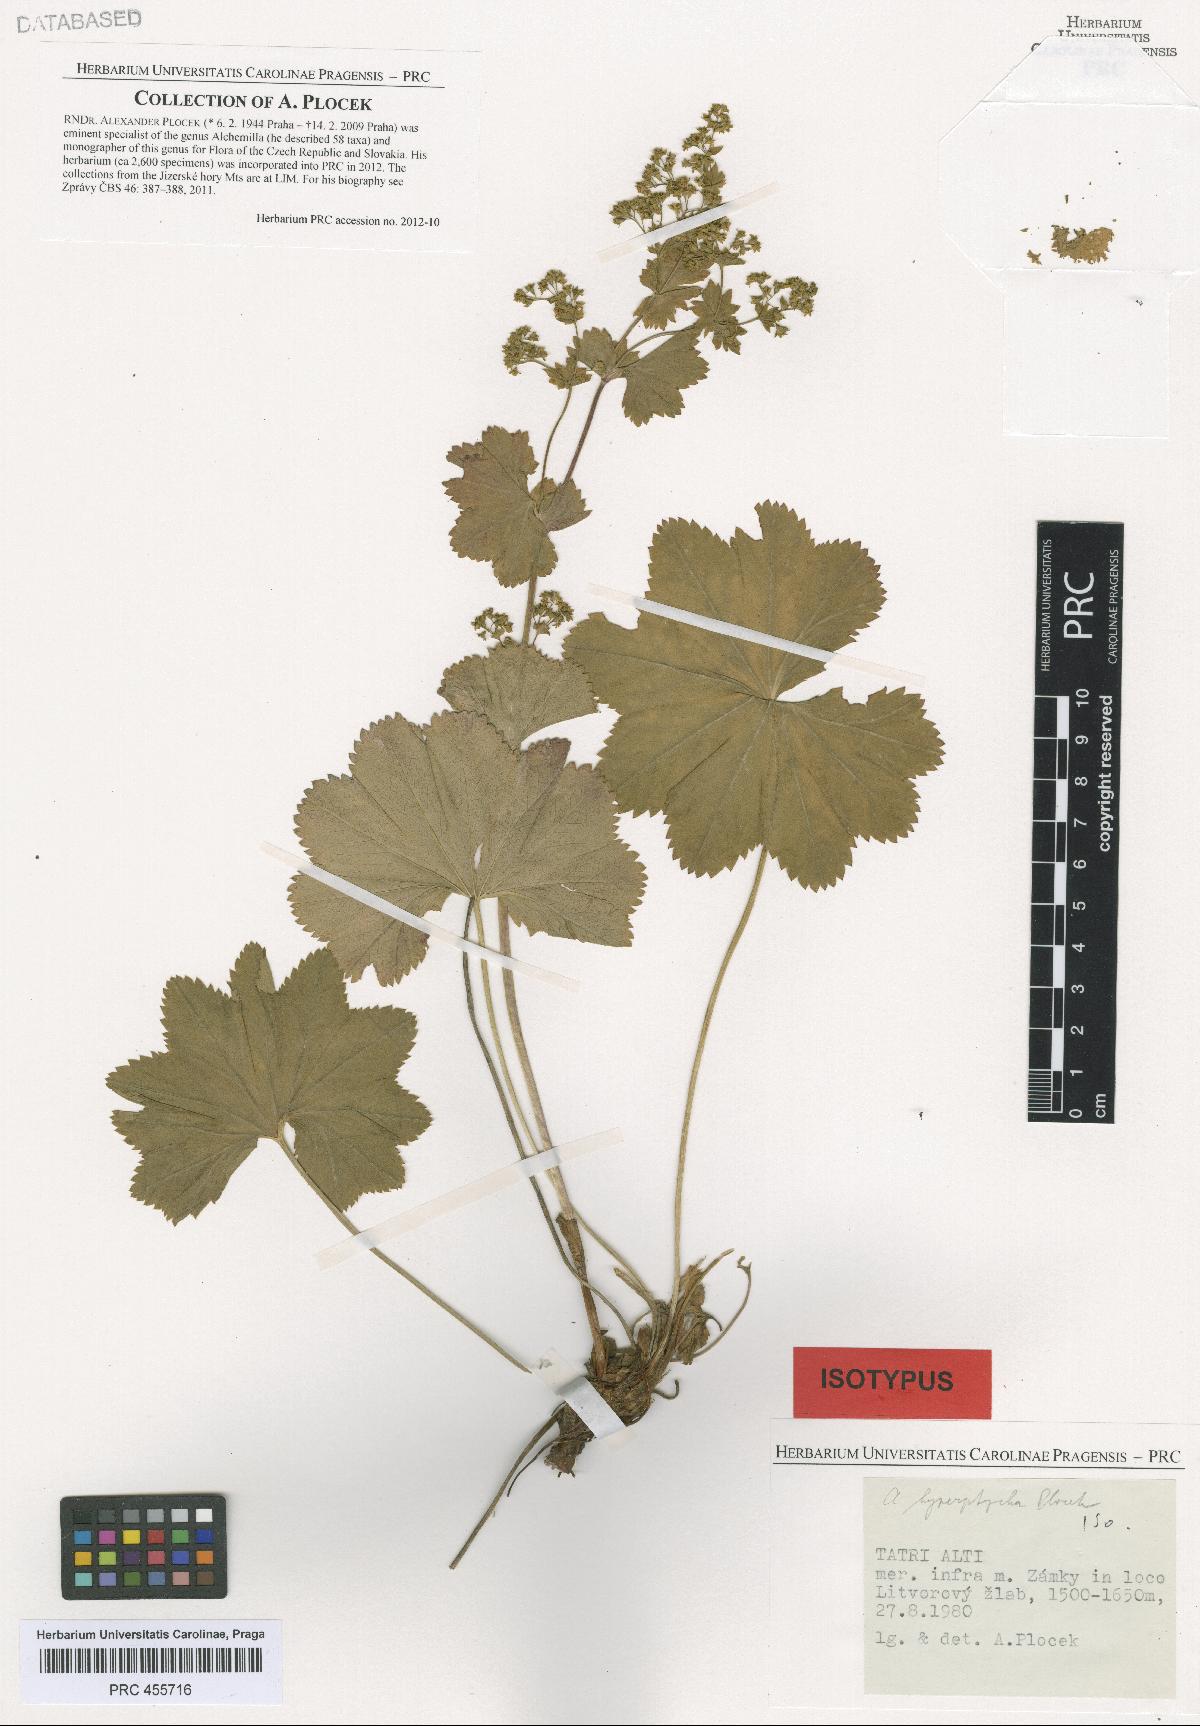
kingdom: Plantae
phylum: Tracheophyta
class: Magnoliopsida
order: Rosales
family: Rosaceae
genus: Alchemilla
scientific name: Alchemilla hyperptycha
